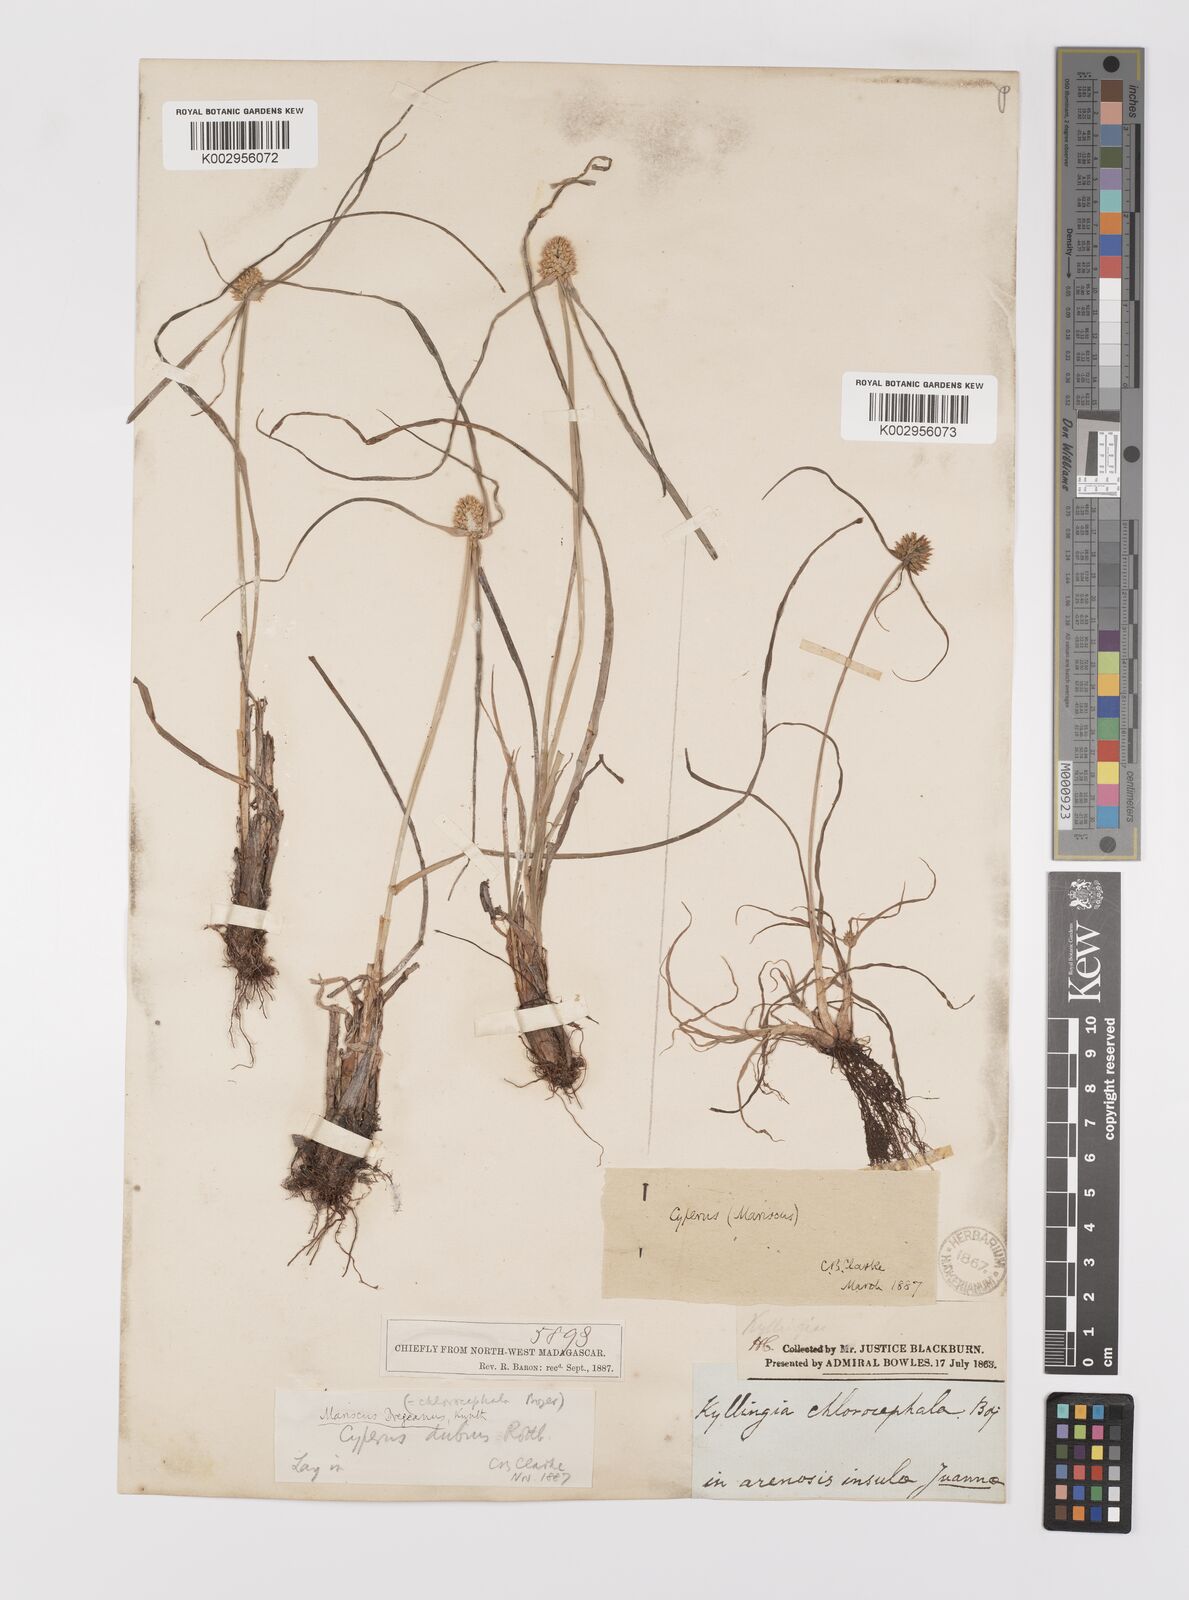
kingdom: Plantae
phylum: Tracheophyta
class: Liliopsida
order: Poales
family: Cyperaceae
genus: Cyperus
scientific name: Cyperus dubius
